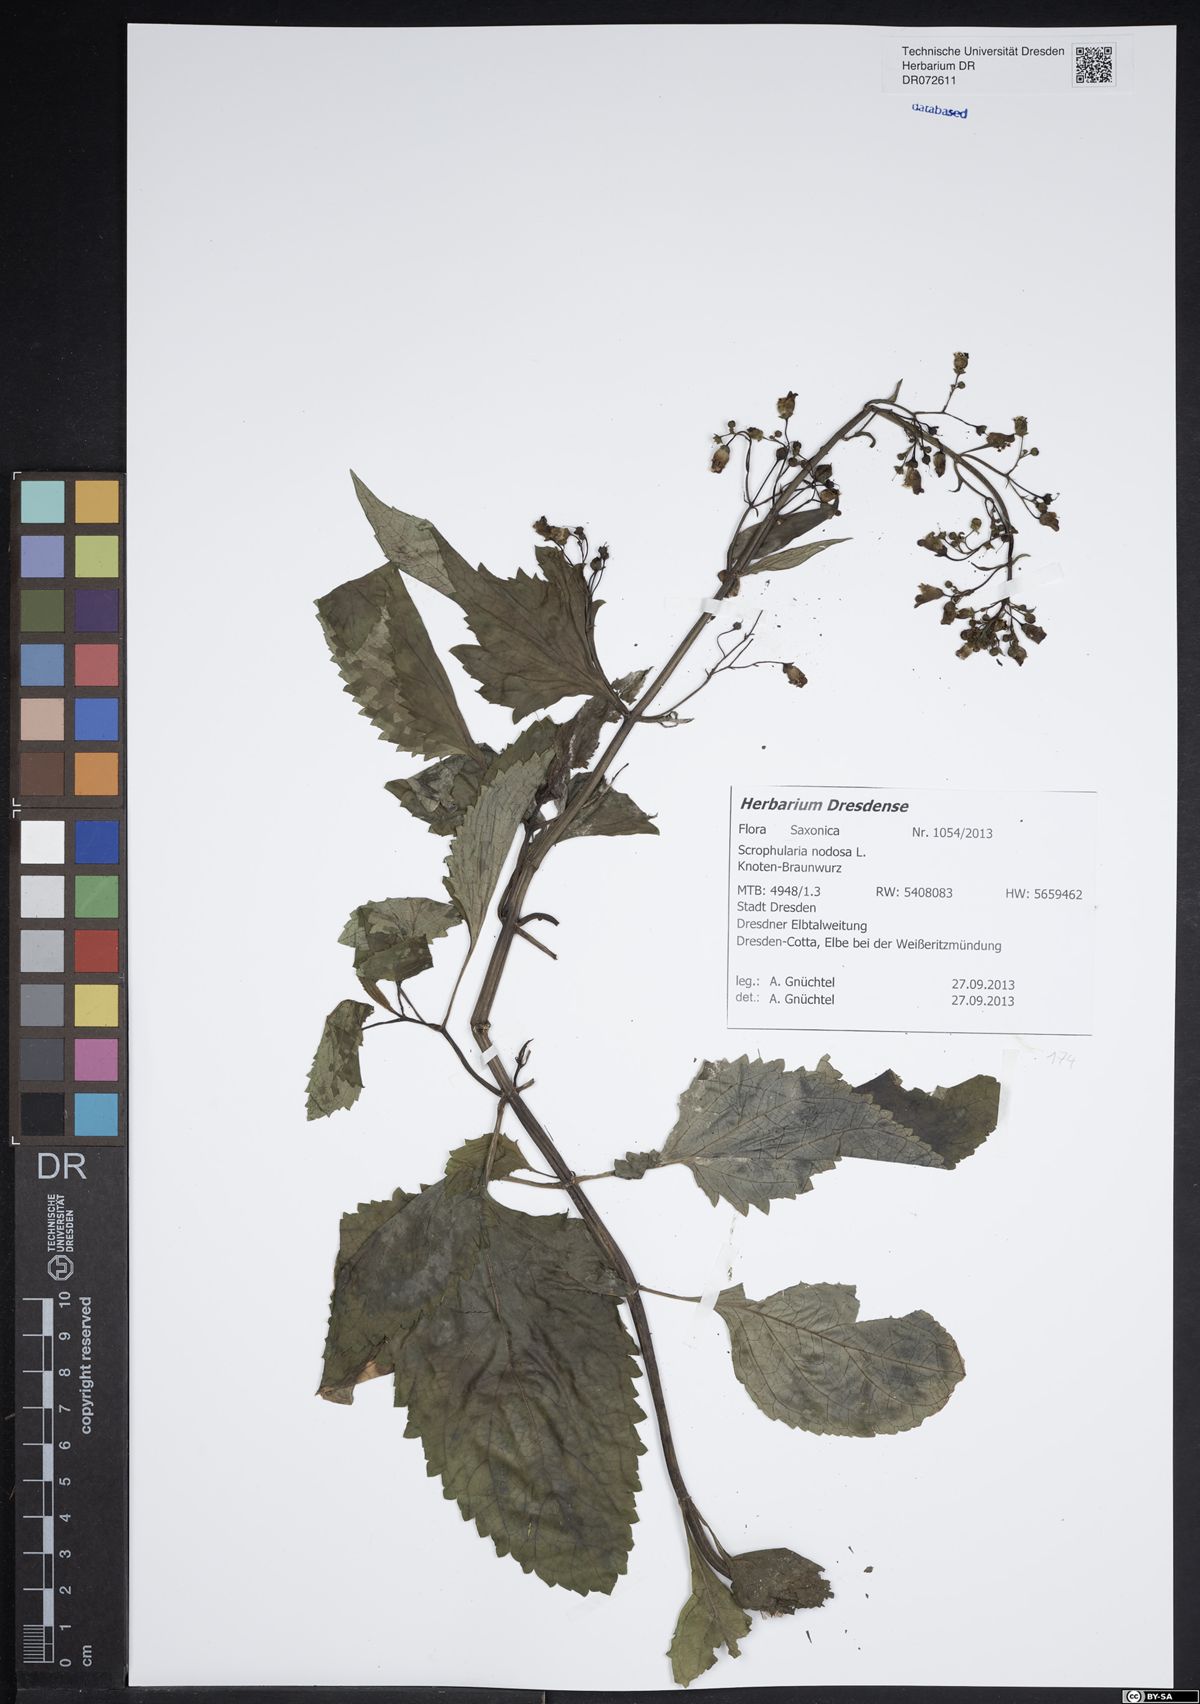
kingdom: Plantae
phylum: Tracheophyta
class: Magnoliopsida
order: Lamiales
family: Scrophulariaceae
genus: Scrophularia
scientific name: Scrophularia nodosa
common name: Common figwort
